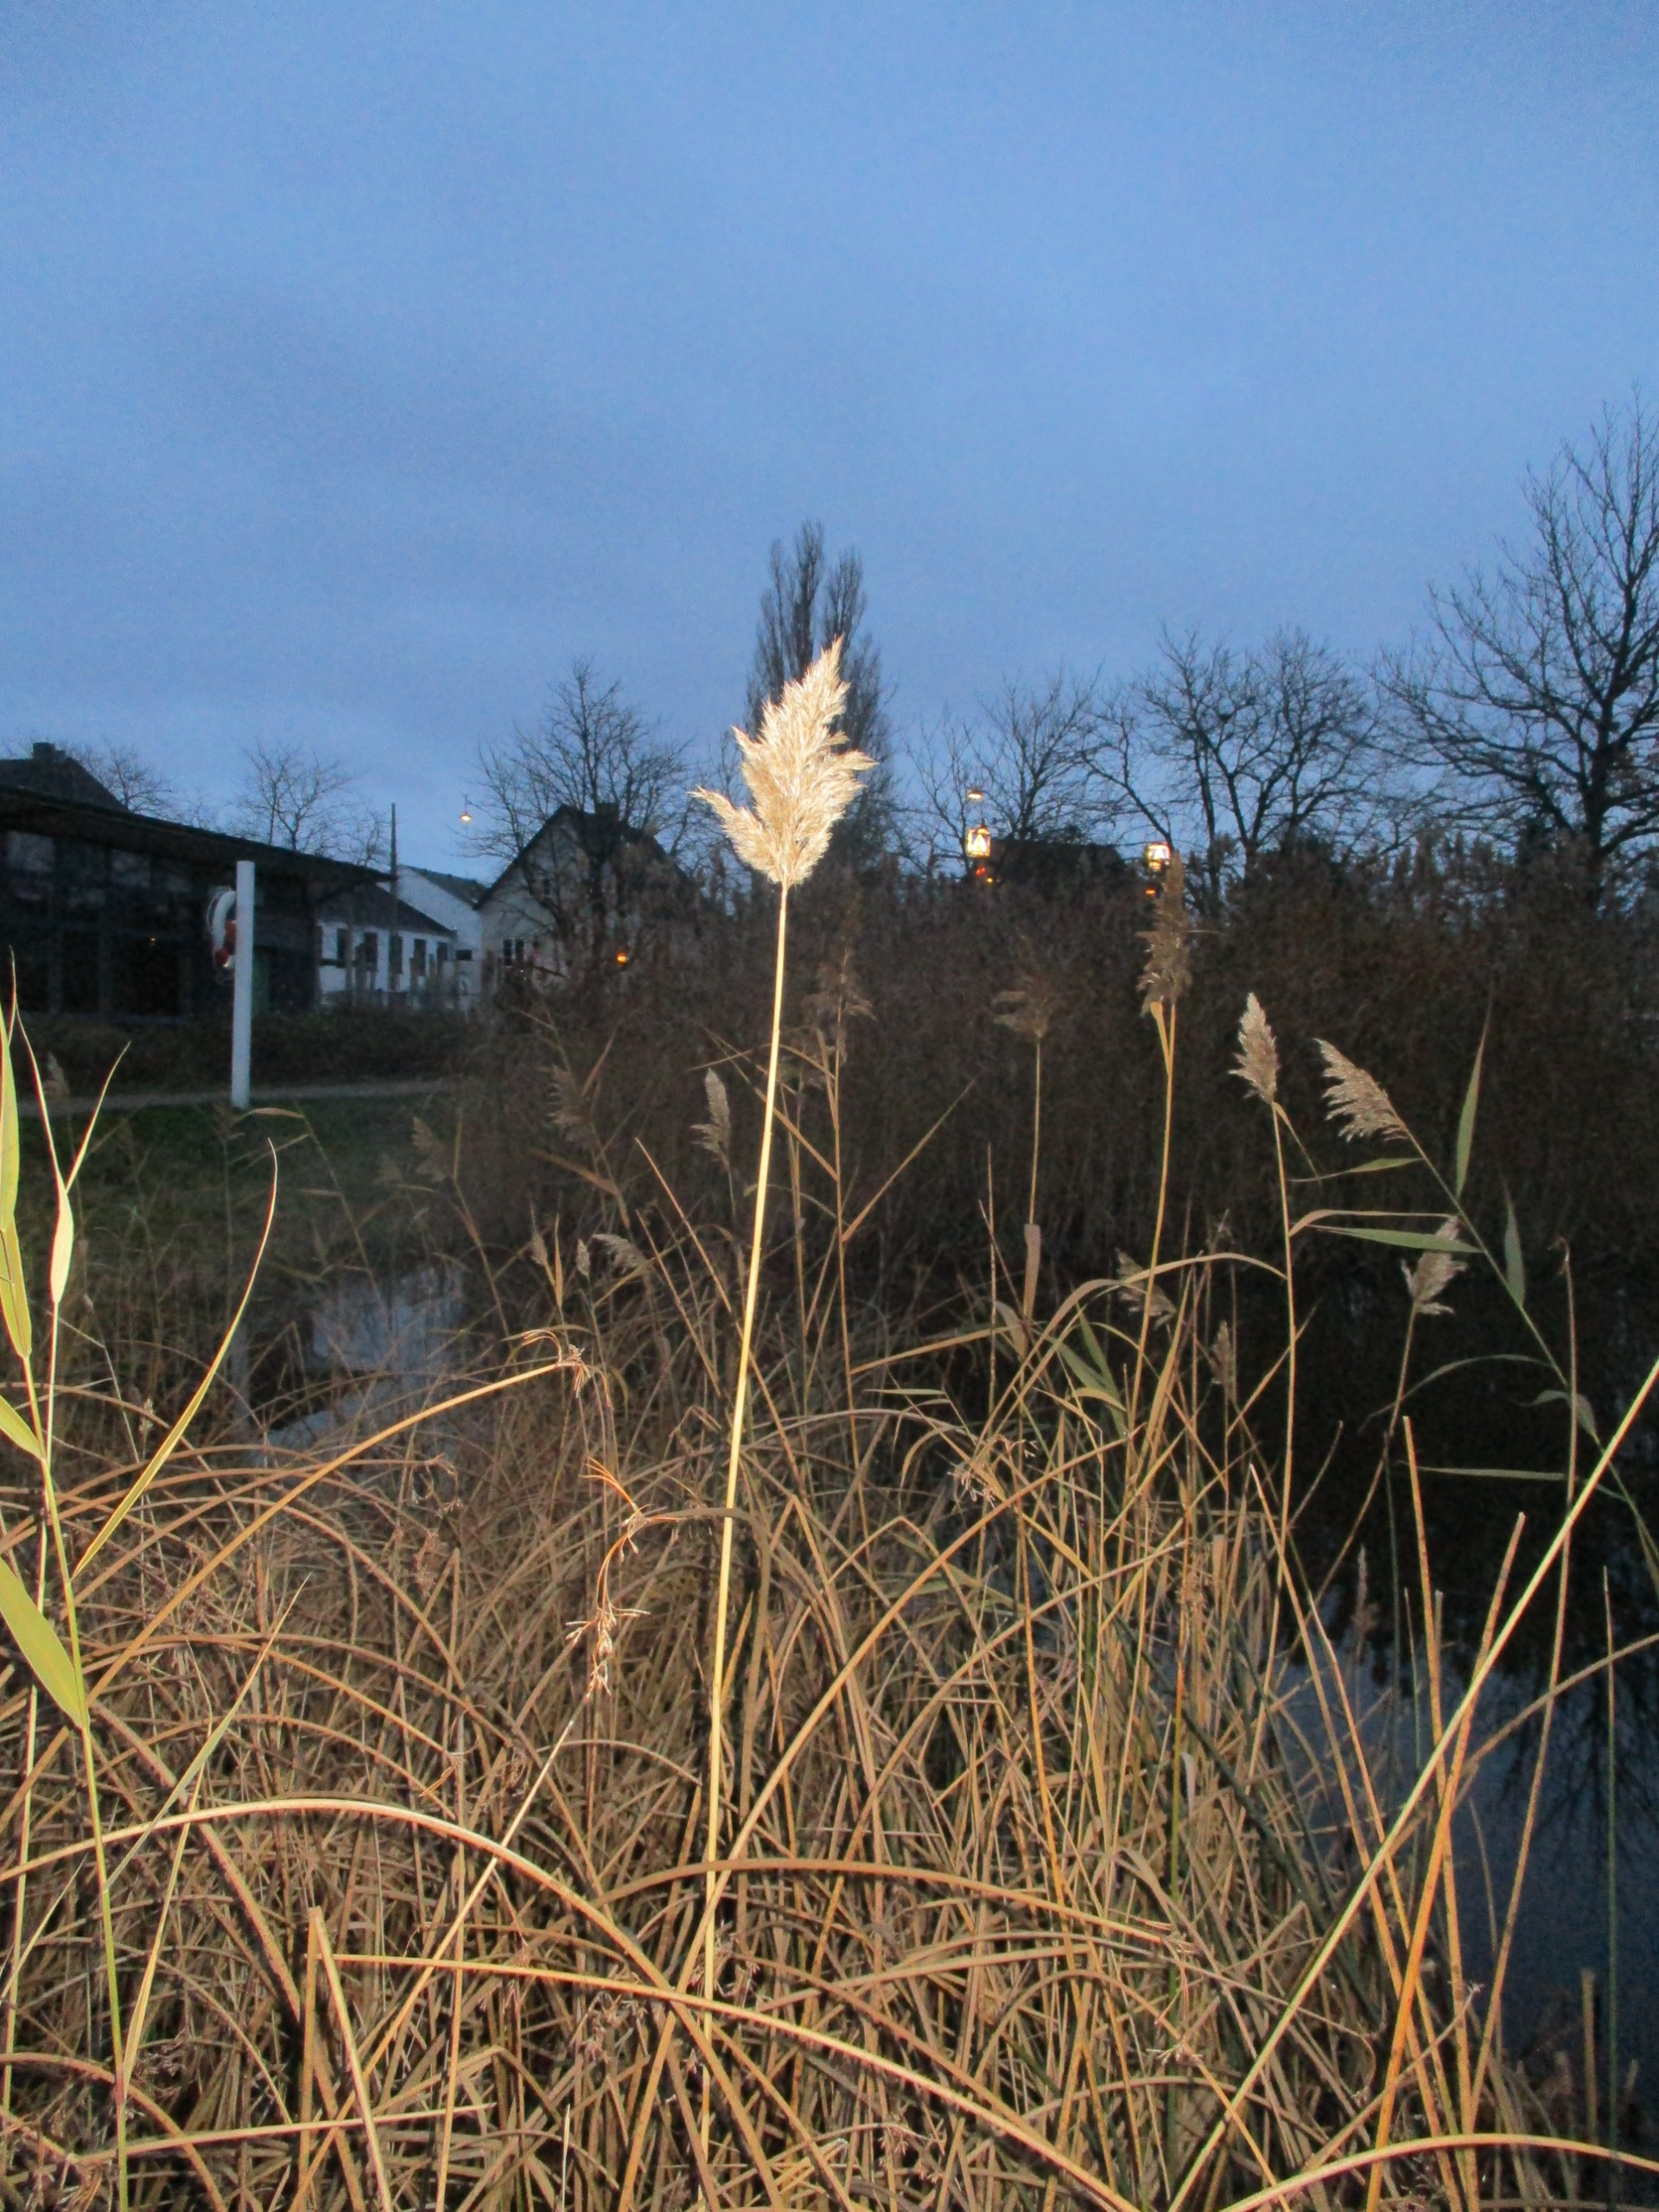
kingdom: Plantae
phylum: Tracheophyta
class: Liliopsida
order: Poales
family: Poaceae
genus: Phragmites
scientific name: Phragmites australis
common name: Tagrør
